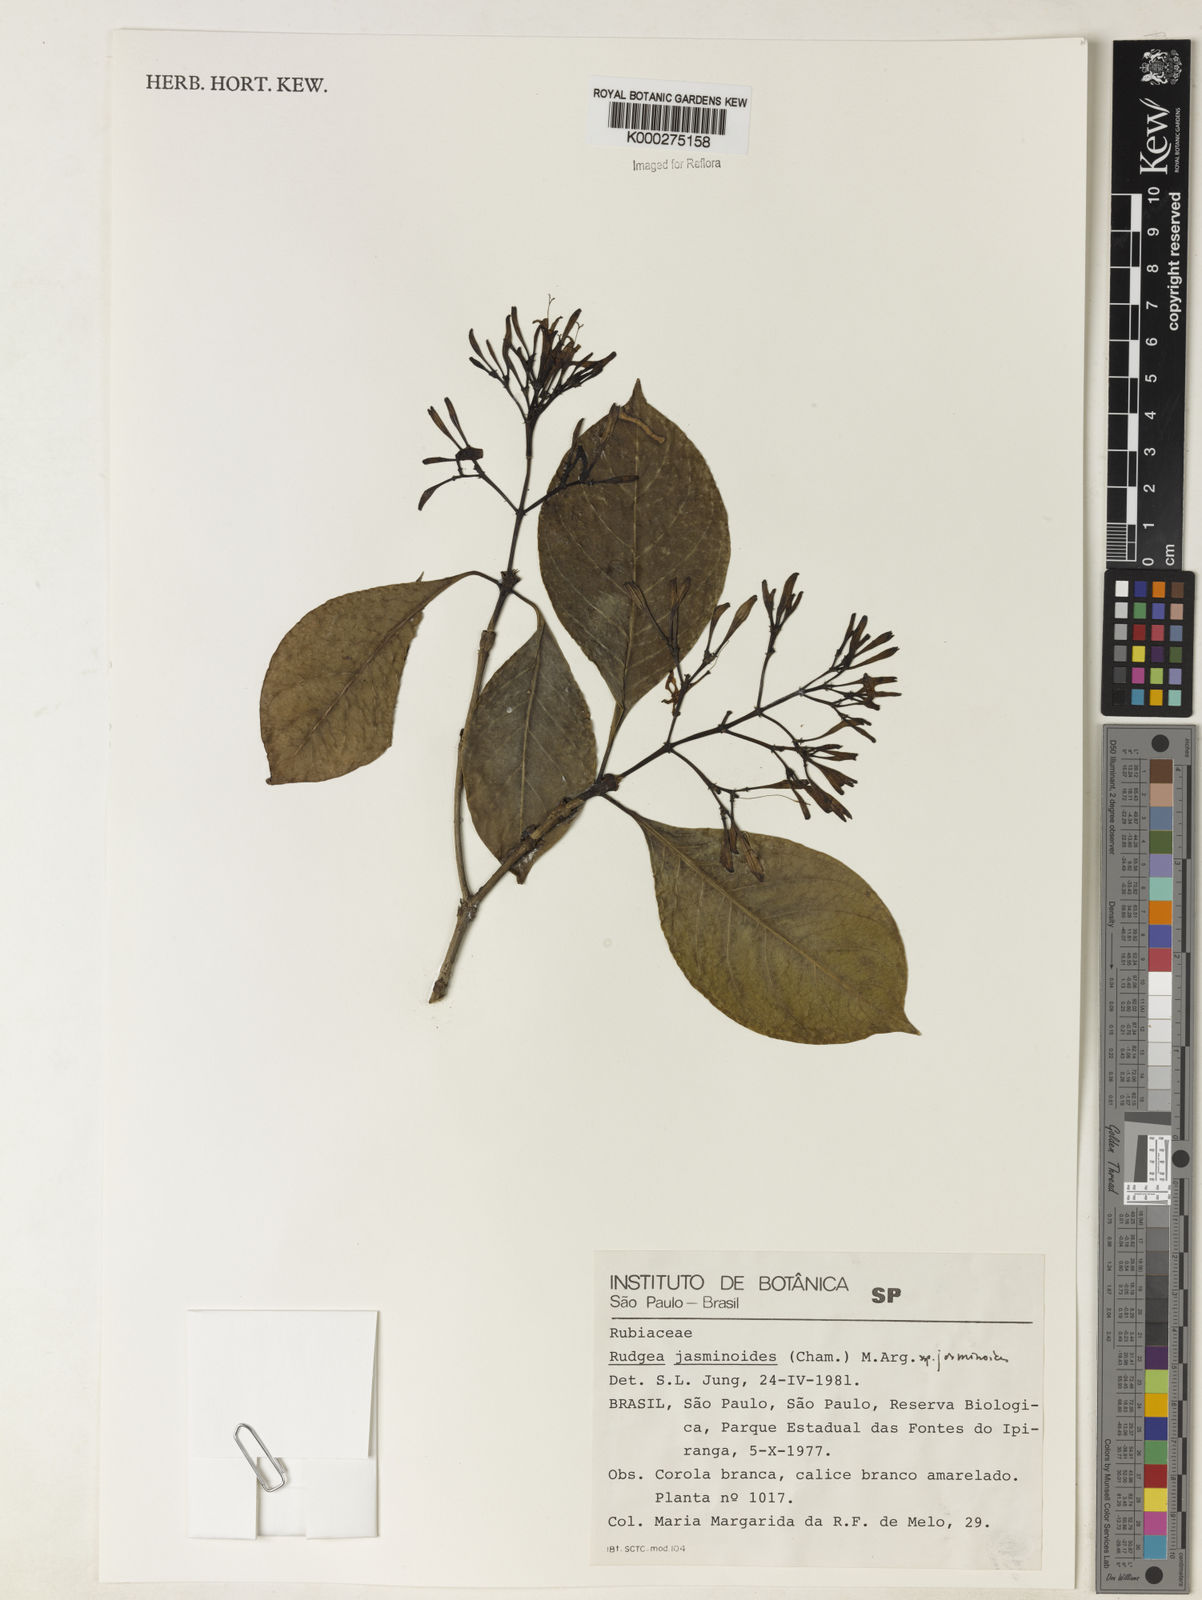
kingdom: Plantae
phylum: Tracheophyta
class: Magnoliopsida
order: Gentianales
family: Rubiaceae
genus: Rudgea
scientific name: Rudgea jasminoides
